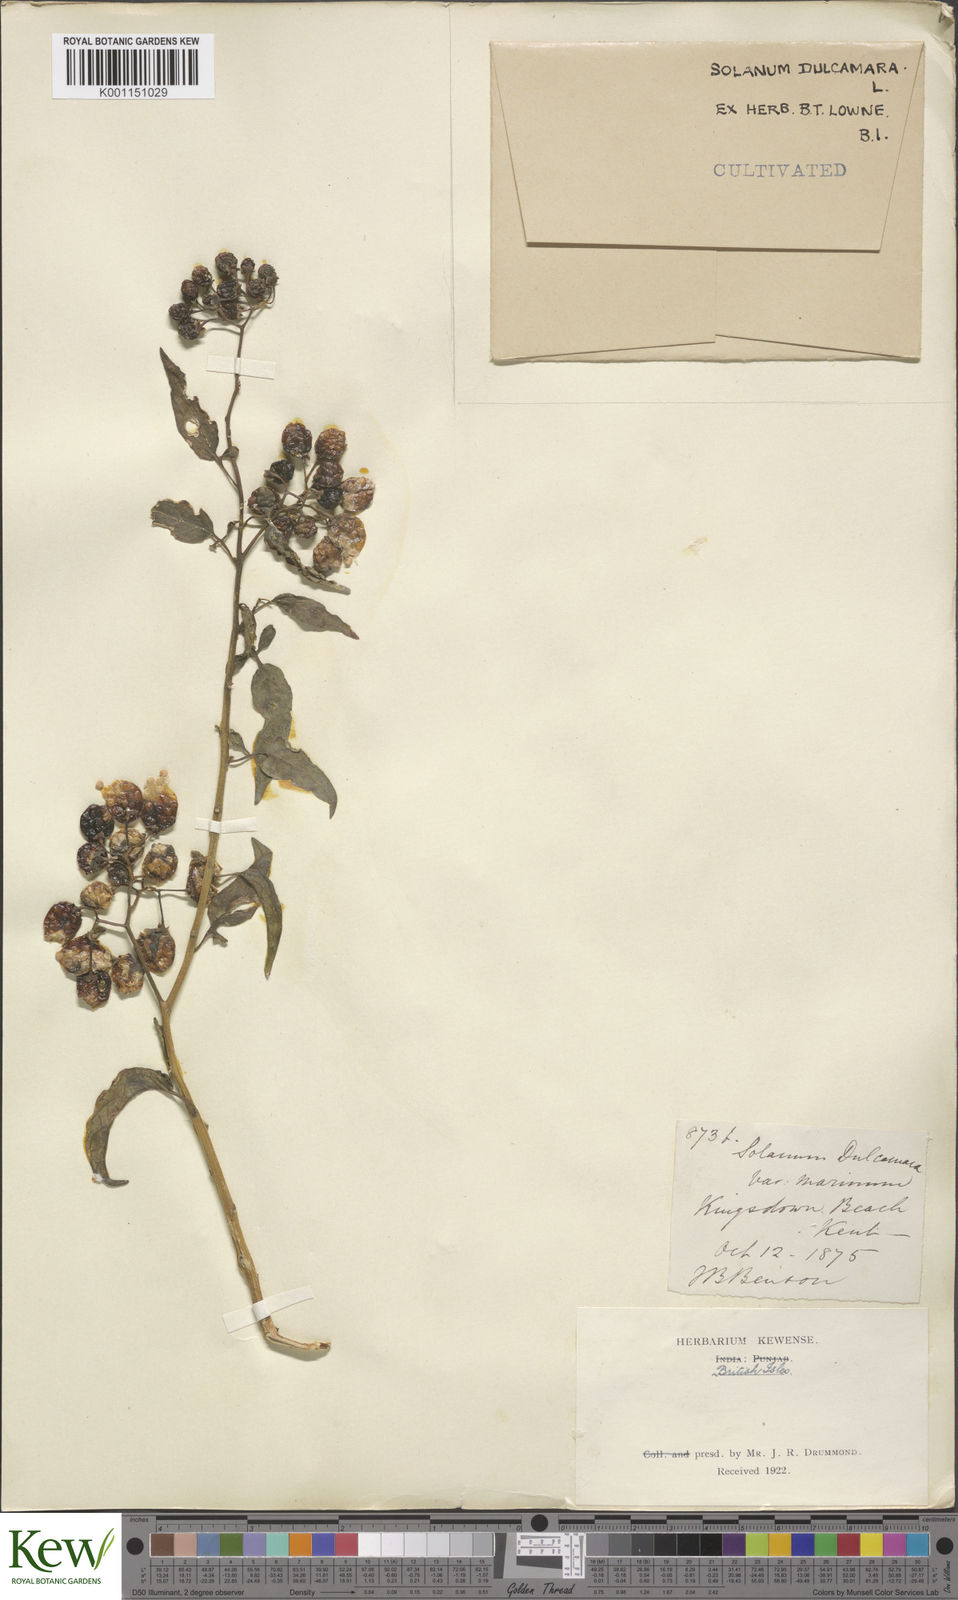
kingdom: Plantae
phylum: Tracheophyta
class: Magnoliopsida
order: Solanales
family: Solanaceae
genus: Solanum
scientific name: Solanum dulcamara
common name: Climbing nightshade
